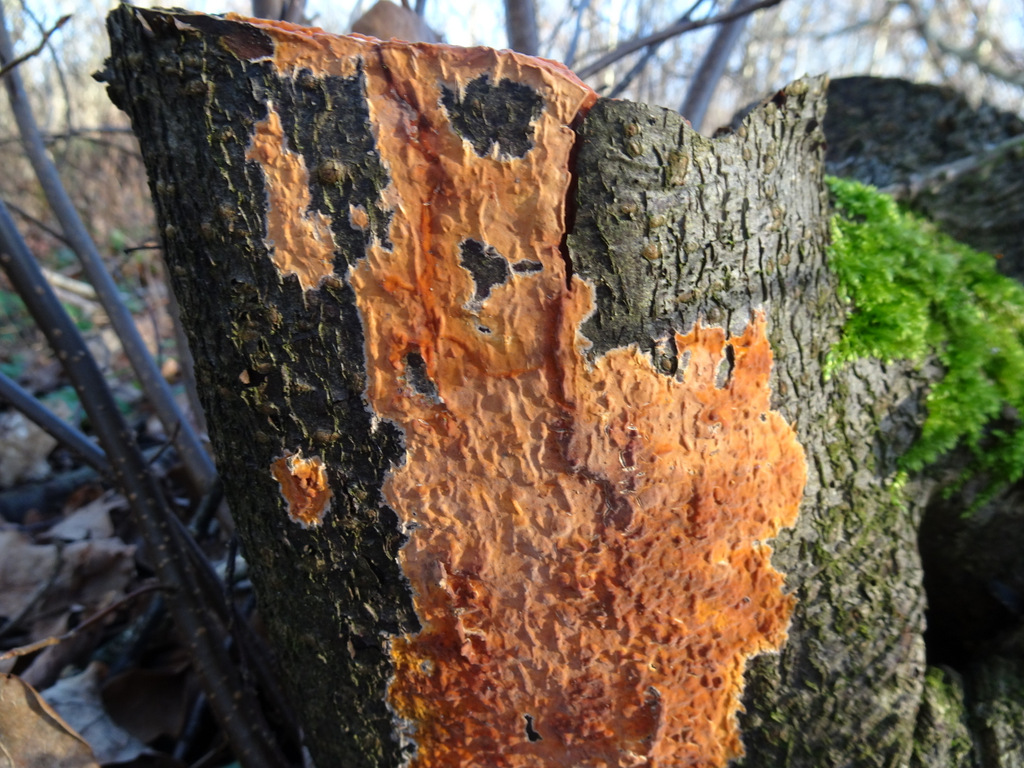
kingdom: Fungi
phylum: Basidiomycota
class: Agaricomycetes
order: Russulales
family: Peniophoraceae
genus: Peniophora
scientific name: Peniophora incarnata
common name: laksefarvet voksskind
